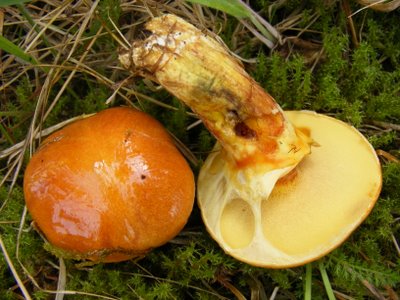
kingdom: Fungi
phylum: Basidiomycota
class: Agaricomycetes
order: Boletales
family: Suillaceae
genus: Suillus
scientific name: Suillus grevillei
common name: lærke-slimrørhat
